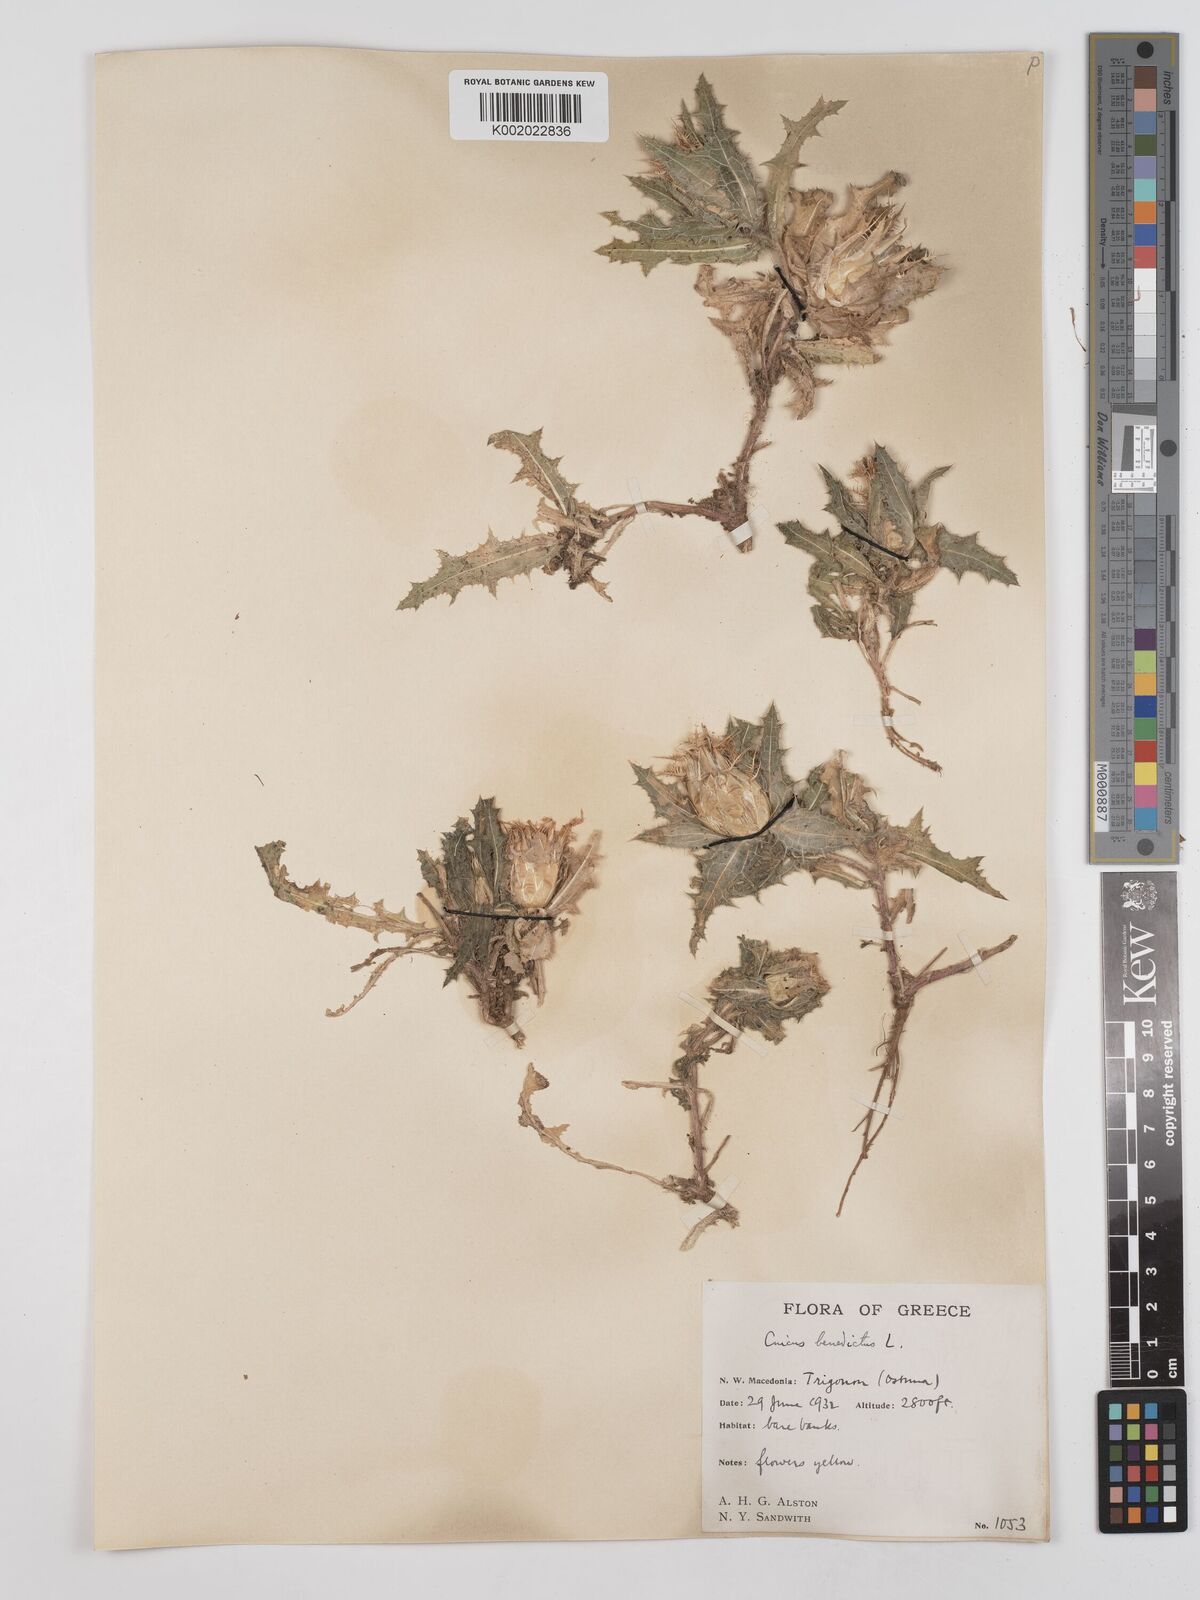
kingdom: Plantae
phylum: Tracheophyta
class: Magnoliopsida
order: Asterales
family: Asteraceae
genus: Centaurea
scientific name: Centaurea benedicta
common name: Blessed thistle
